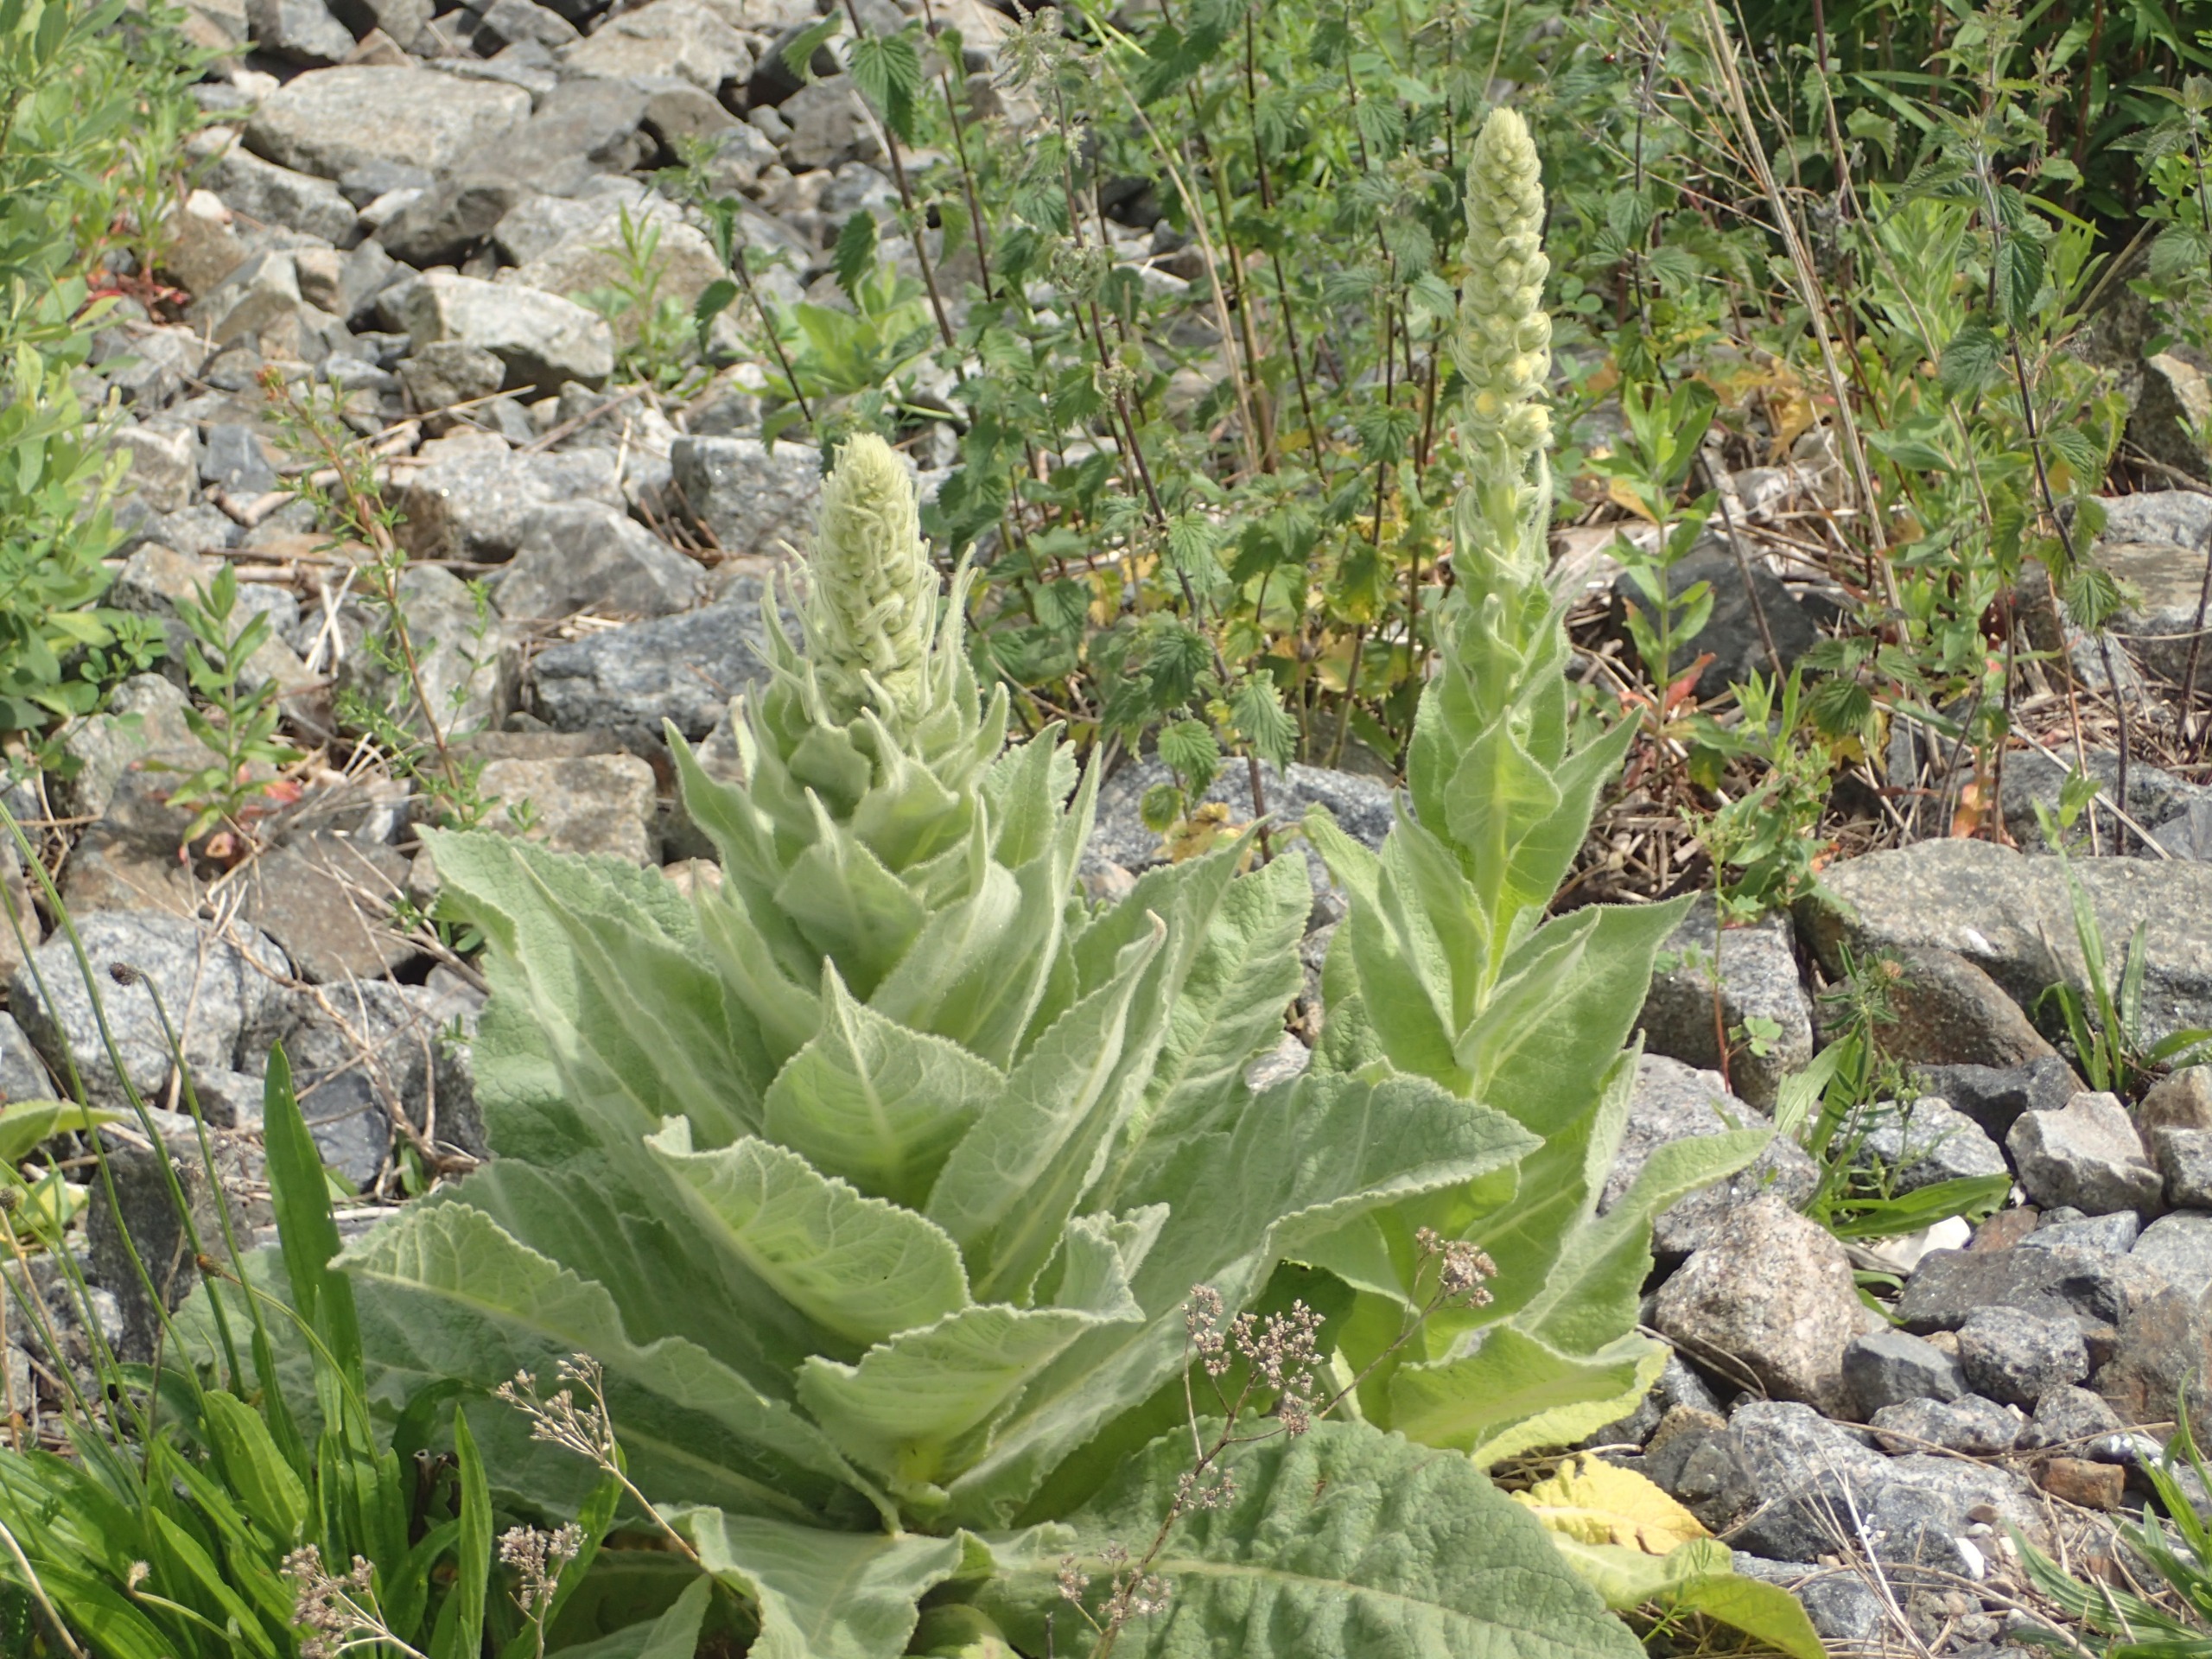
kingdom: Plantae
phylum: Tracheophyta
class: Magnoliopsida
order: Lamiales
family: Scrophulariaceae
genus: Verbascum
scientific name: Verbascum densiflorum
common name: Uldbladet kongelys
